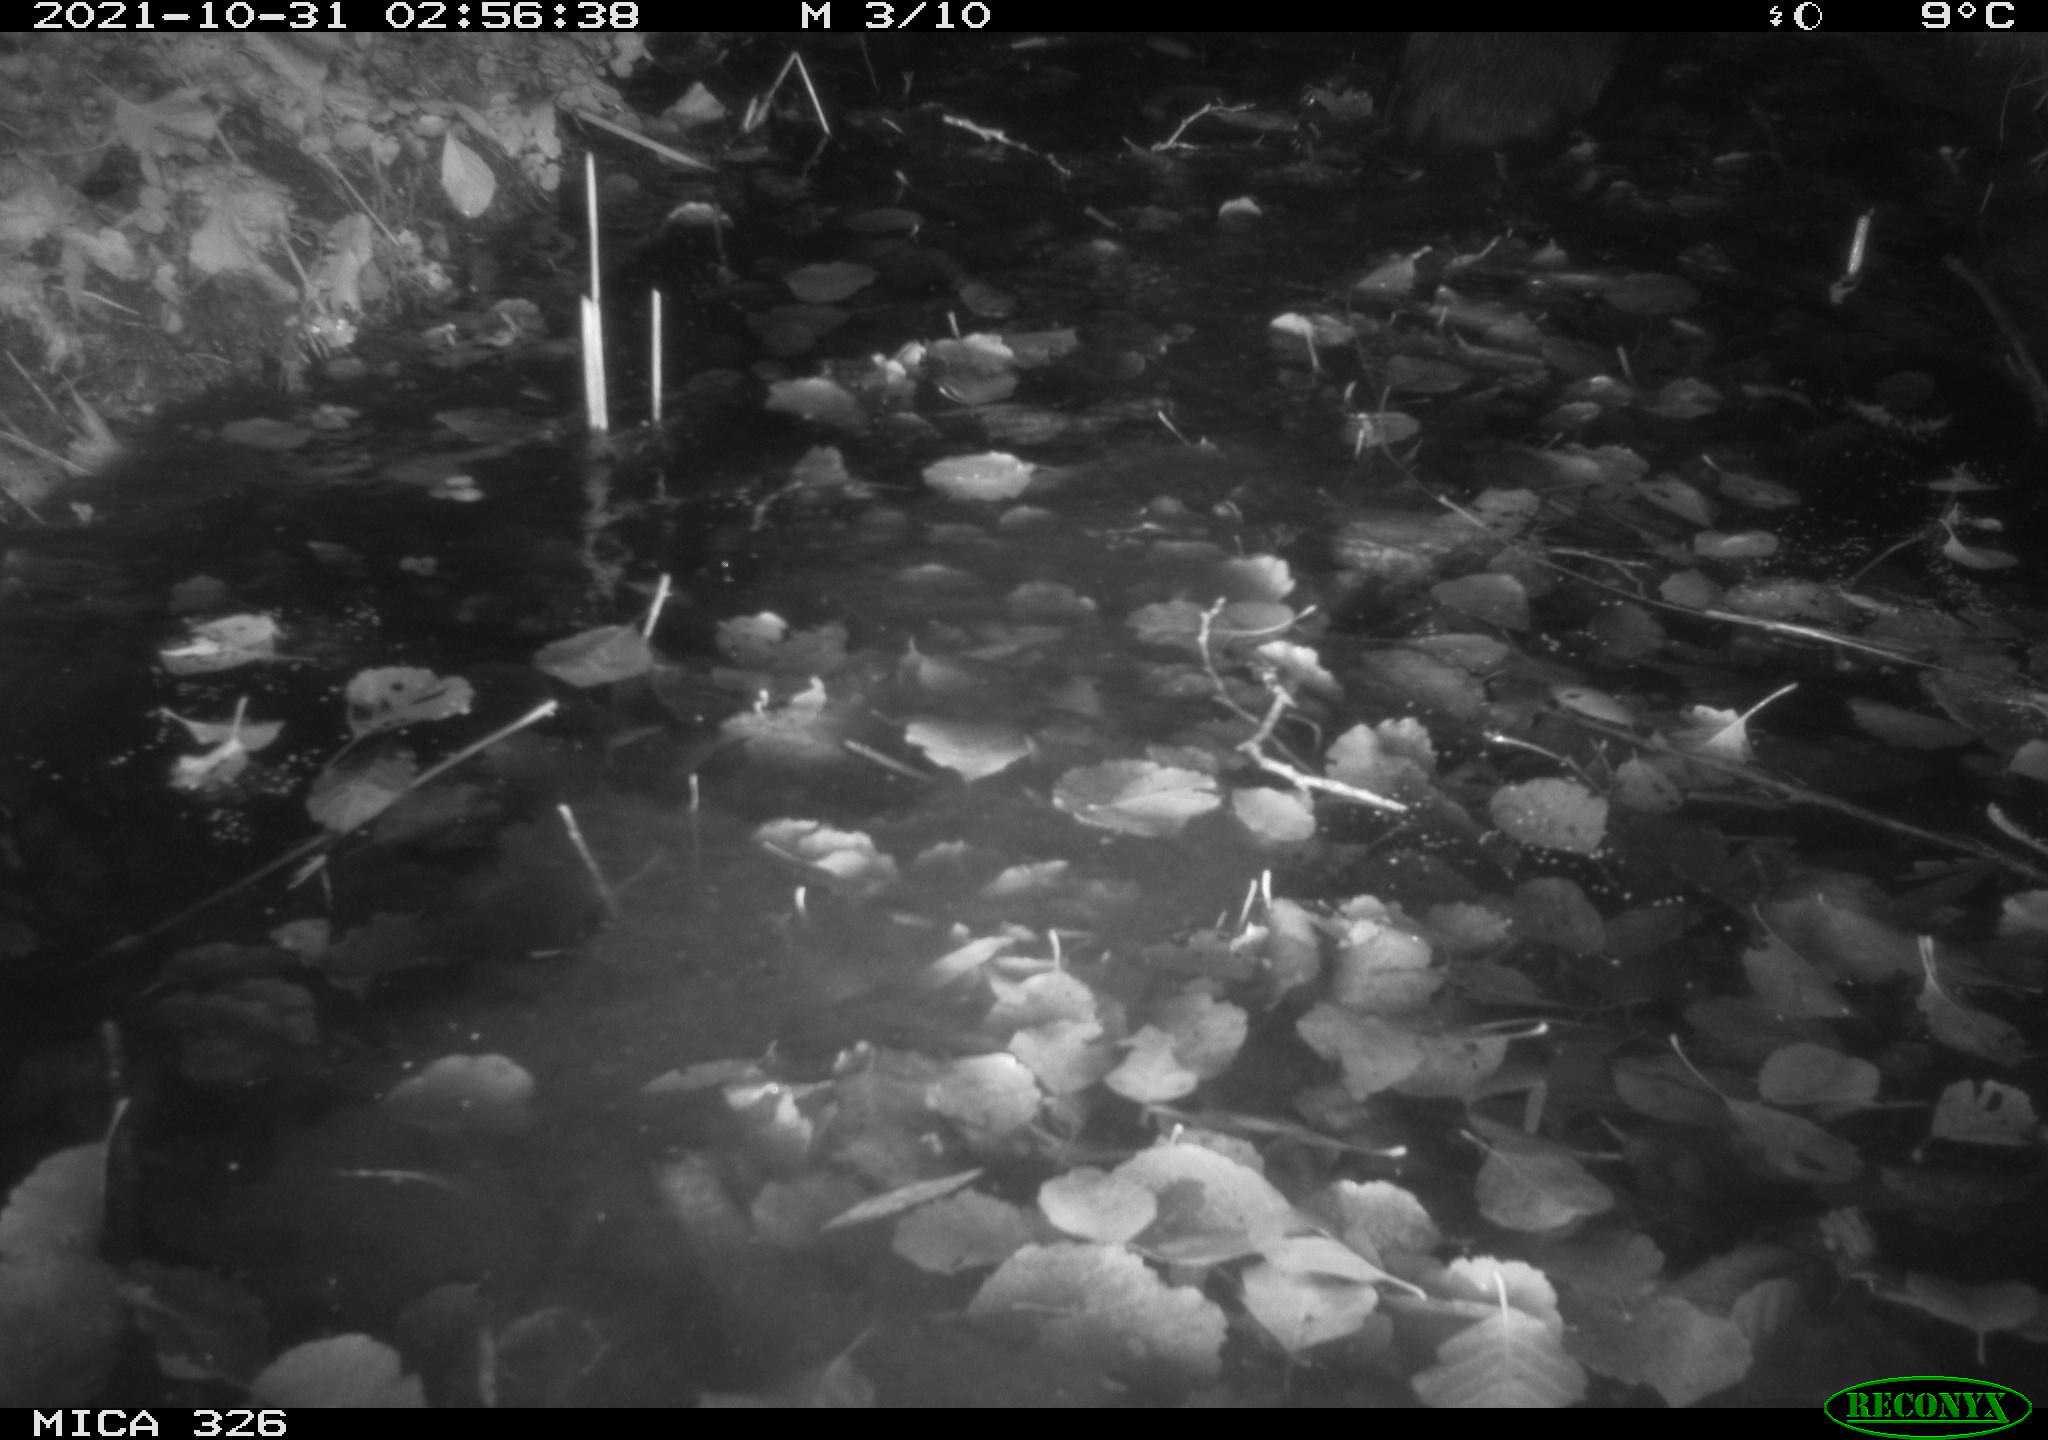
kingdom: Animalia
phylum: Chordata
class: Mammalia
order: Carnivora
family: Mustelidae
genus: Lutra
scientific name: Lutra lutra
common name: European otter
